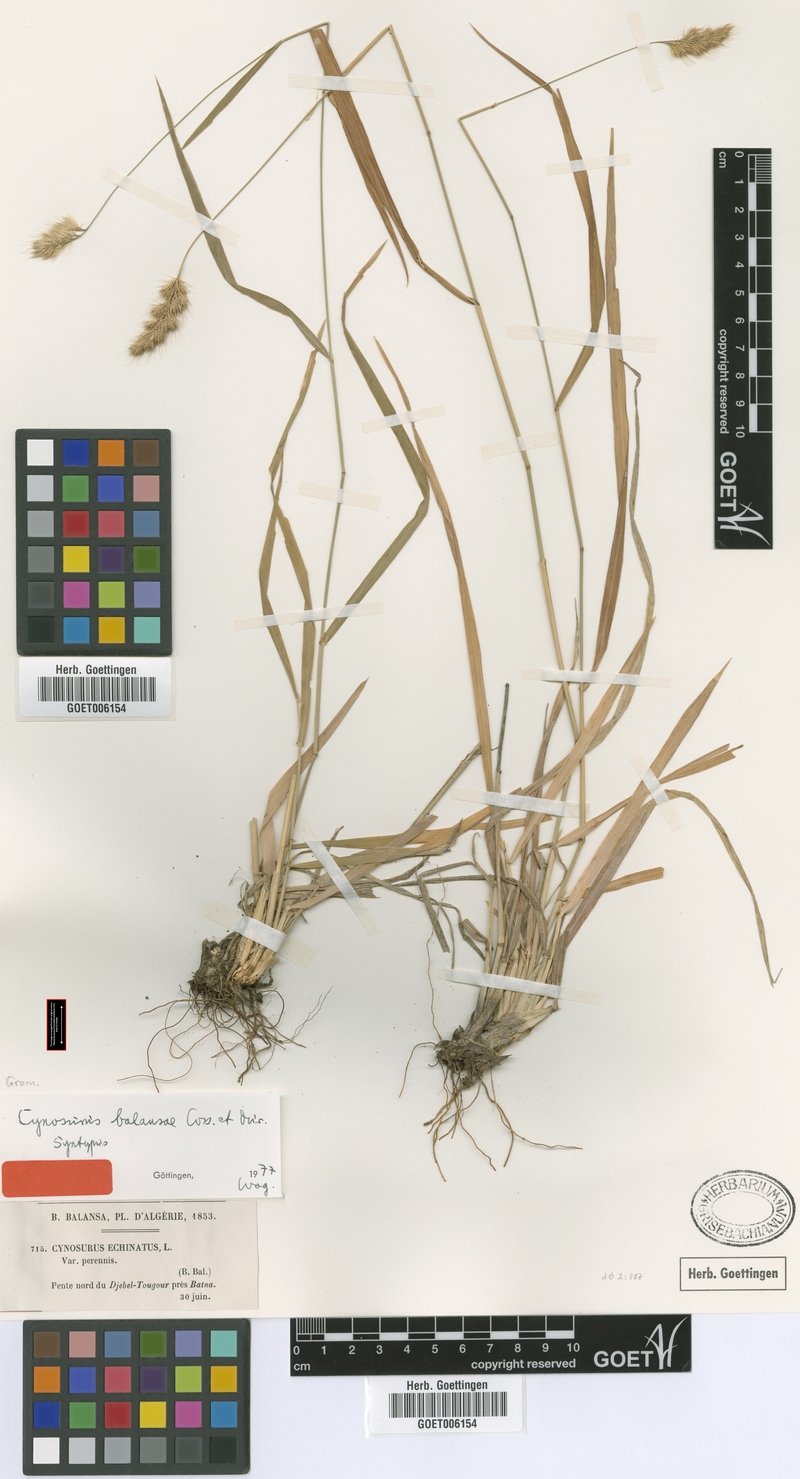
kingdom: Plantae
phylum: Tracheophyta
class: Liliopsida
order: Poales
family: Poaceae
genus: Cynosurus
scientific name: Cynosurus balansae
